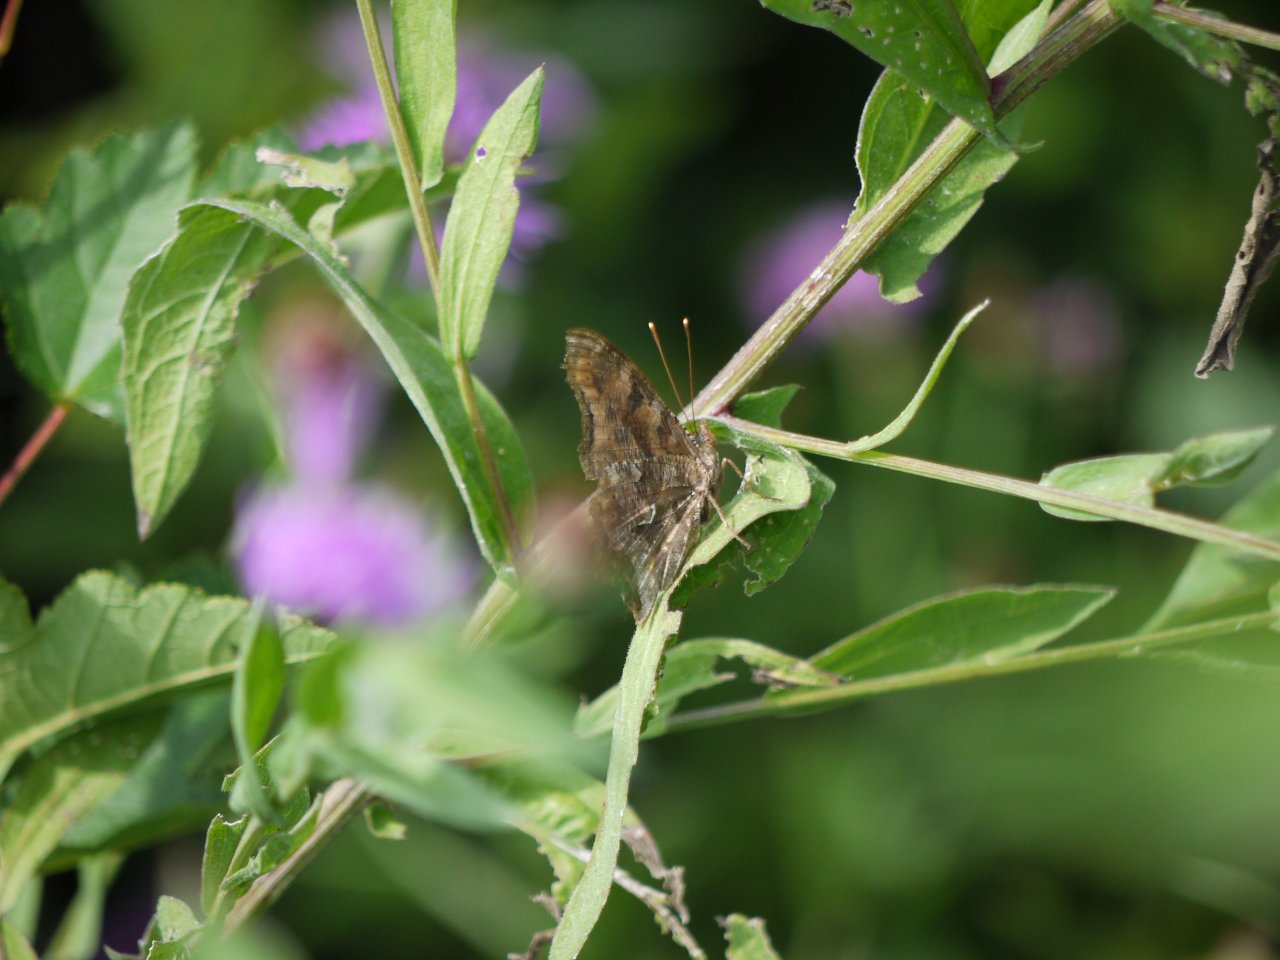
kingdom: Animalia
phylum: Arthropoda
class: Insecta
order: Lepidoptera
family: Nymphalidae
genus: Polygonia
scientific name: Polygonia comma
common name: Eastern Comma
